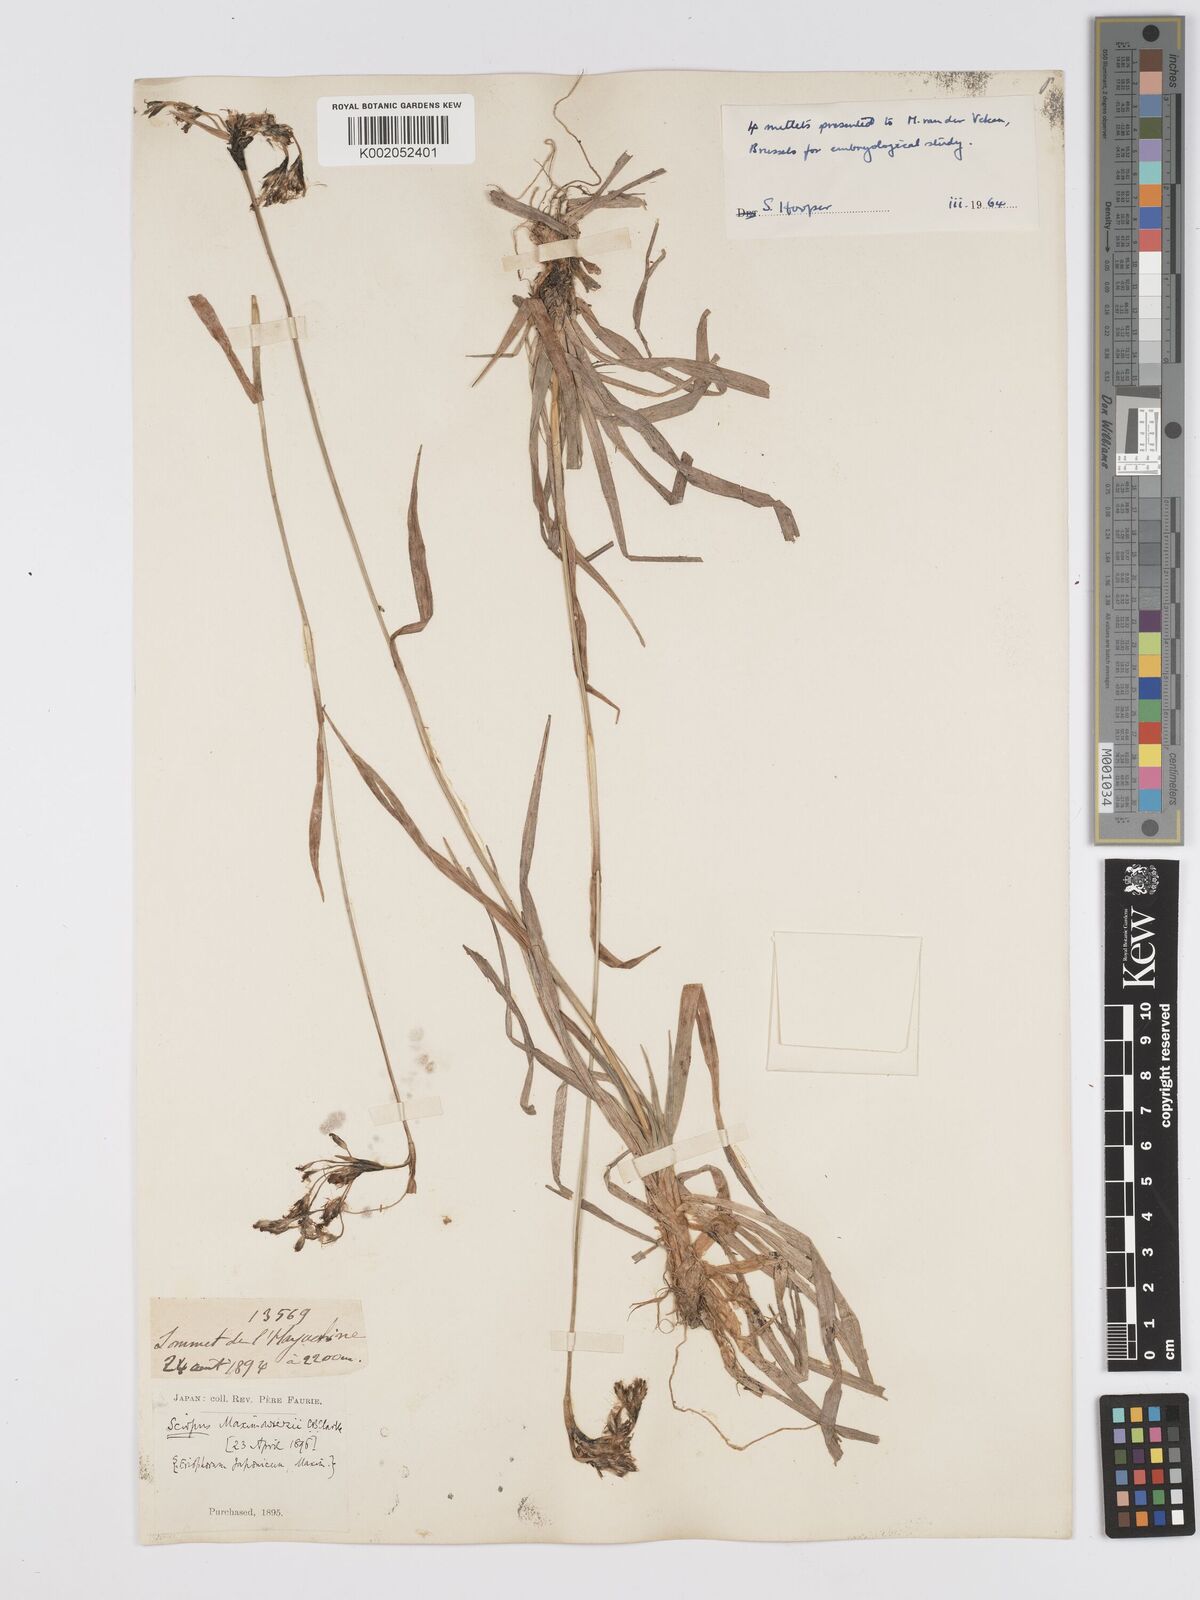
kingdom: Plantae
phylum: Tracheophyta
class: Liliopsida
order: Poales
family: Cyperaceae
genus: Scirpus
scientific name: Scirpus maximowiczii
